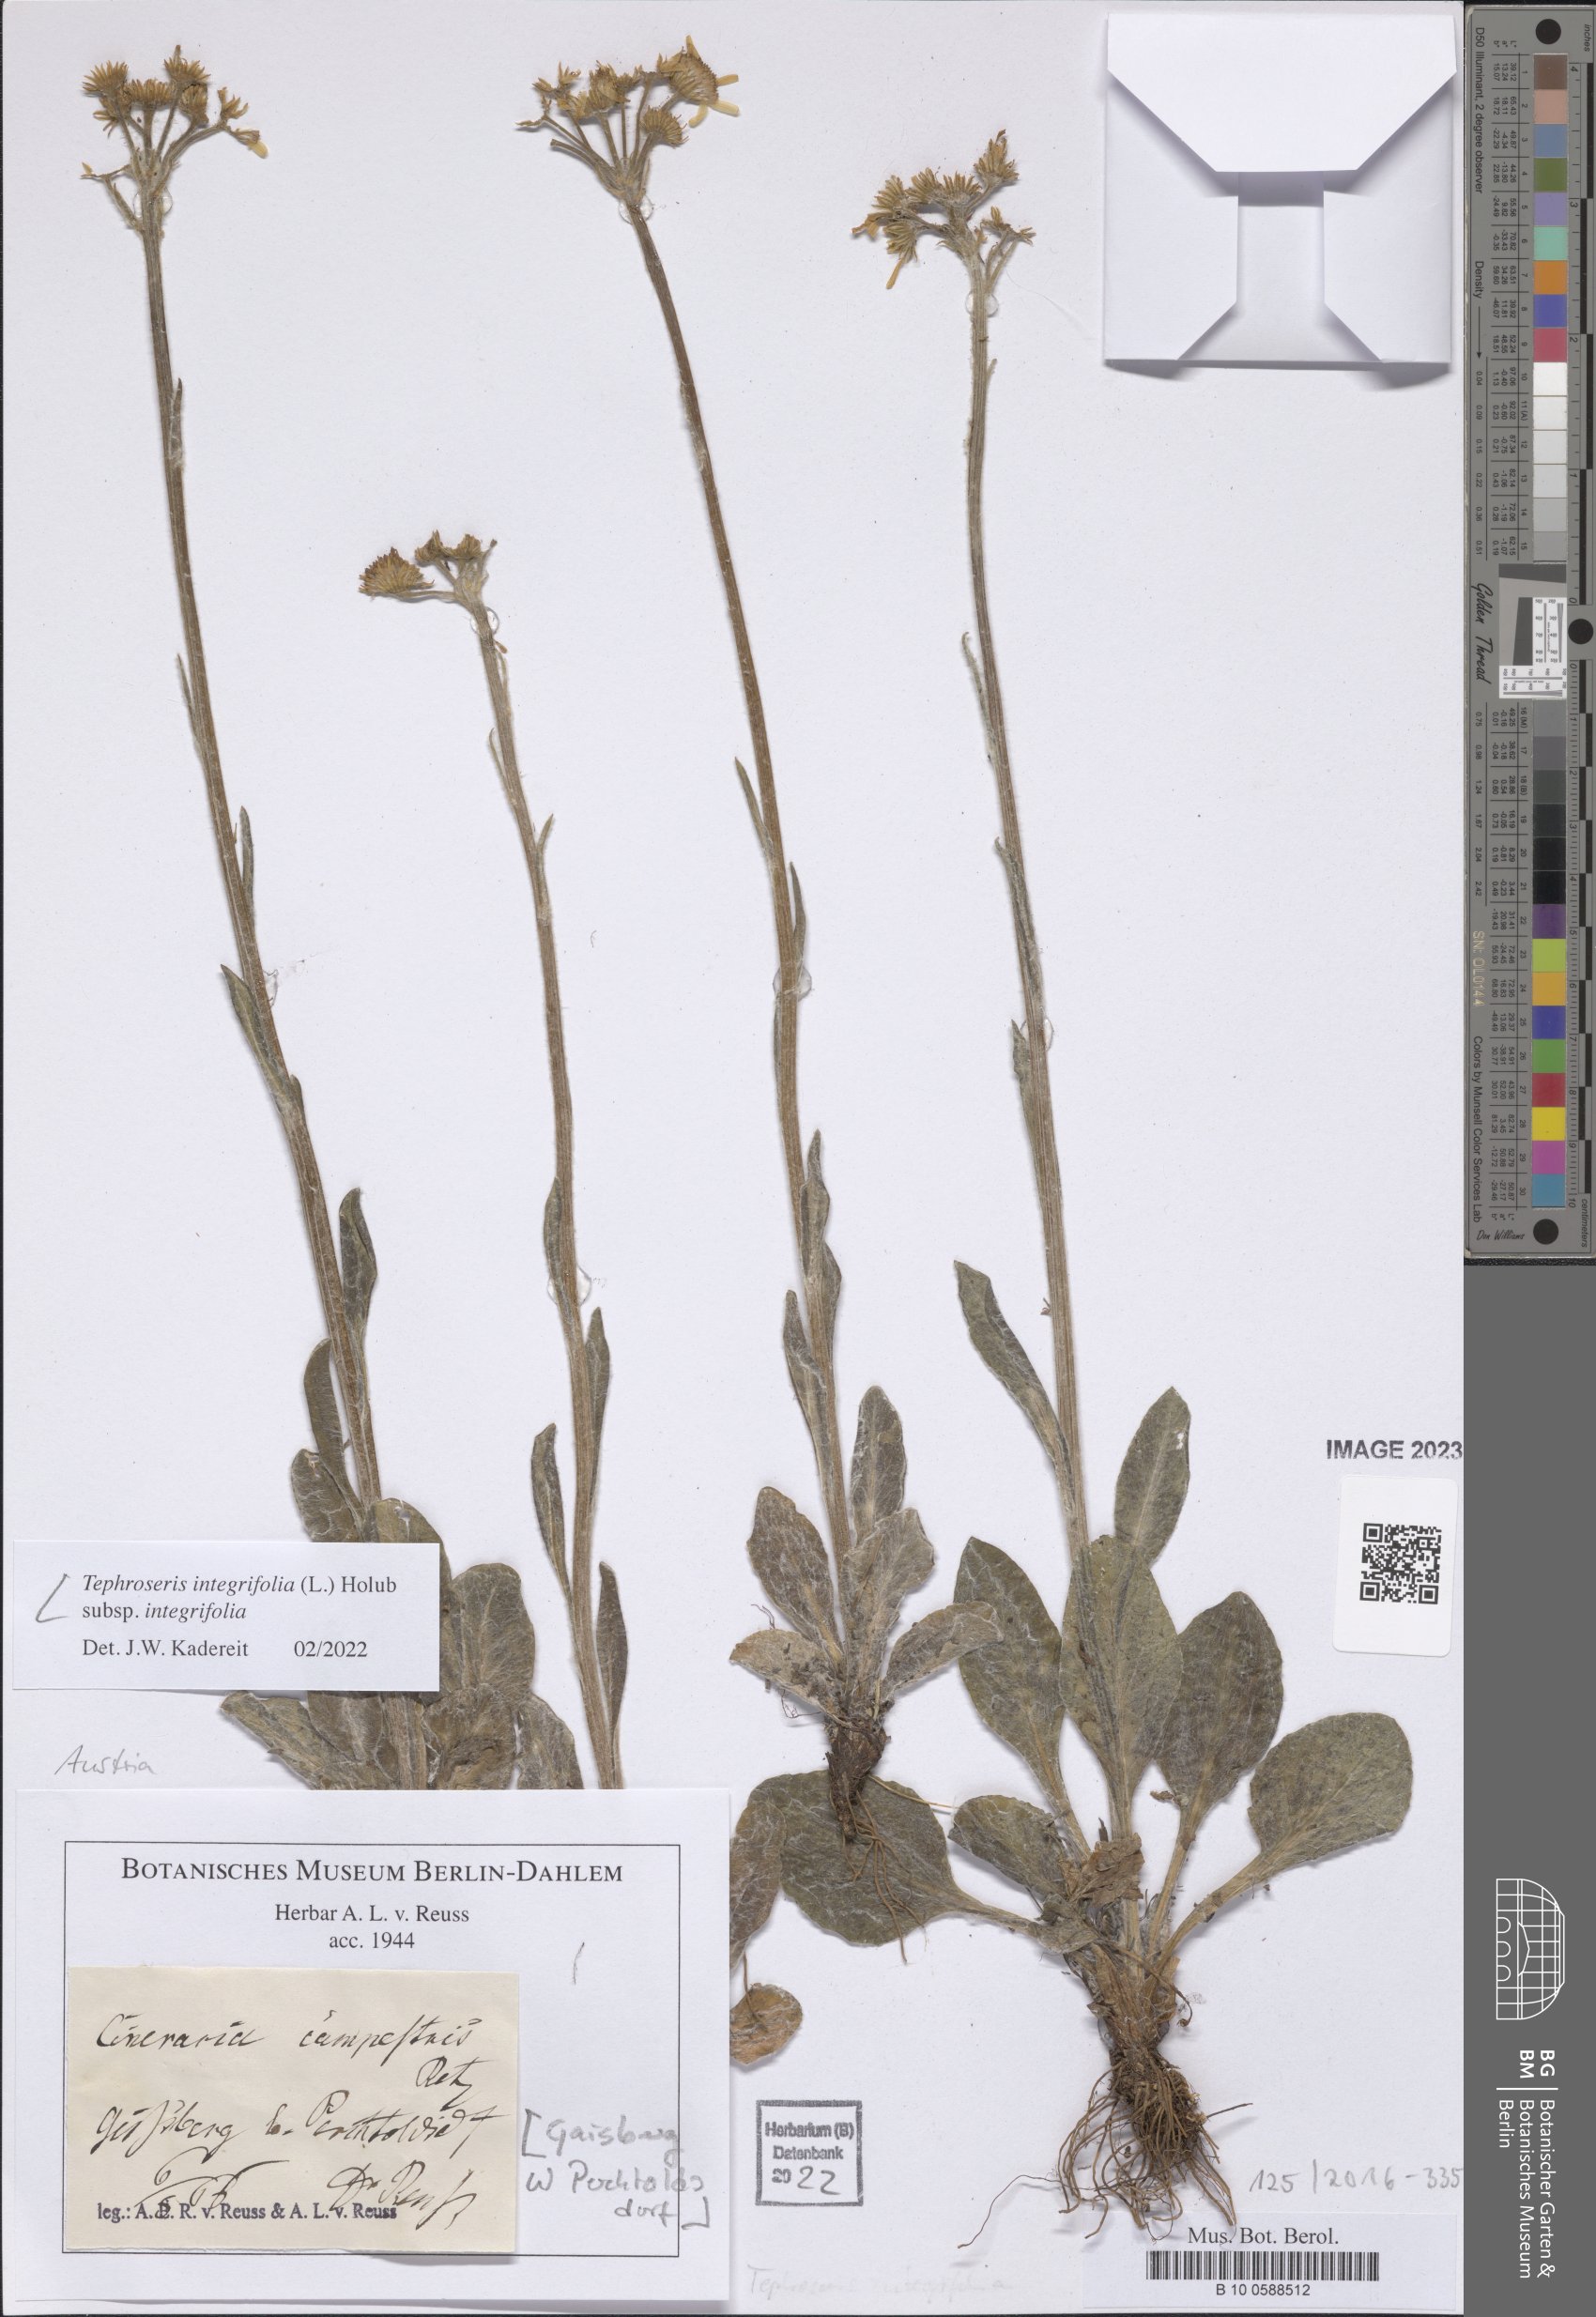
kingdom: Plantae
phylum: Tracheophyta
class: Magnoliopsida
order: Asterales
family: Asteraceae
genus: Tephroseris
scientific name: Tephroseris integrifolia
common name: Field fleawort
